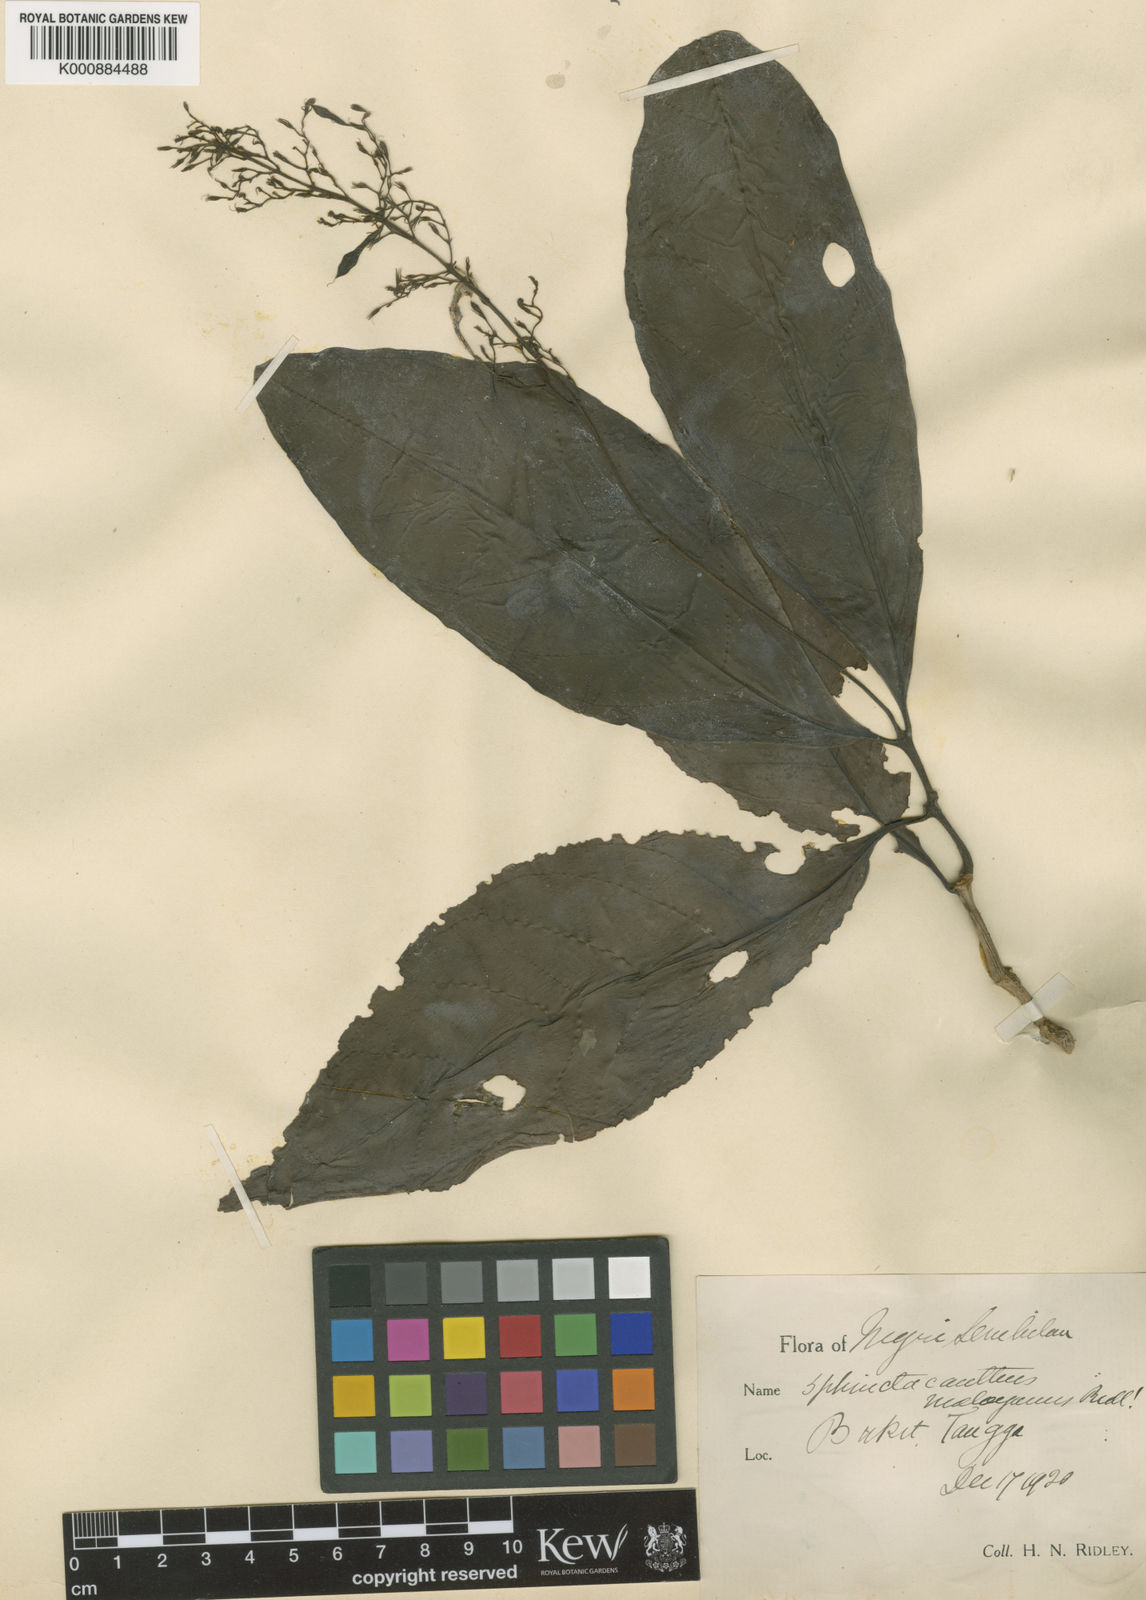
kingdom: Plantae
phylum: Tracheophyta
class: Magnoliopsida
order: Lamiales
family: Acanthaceae
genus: Cosmianthemum
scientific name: Cosmianthemum knoxiifolium
